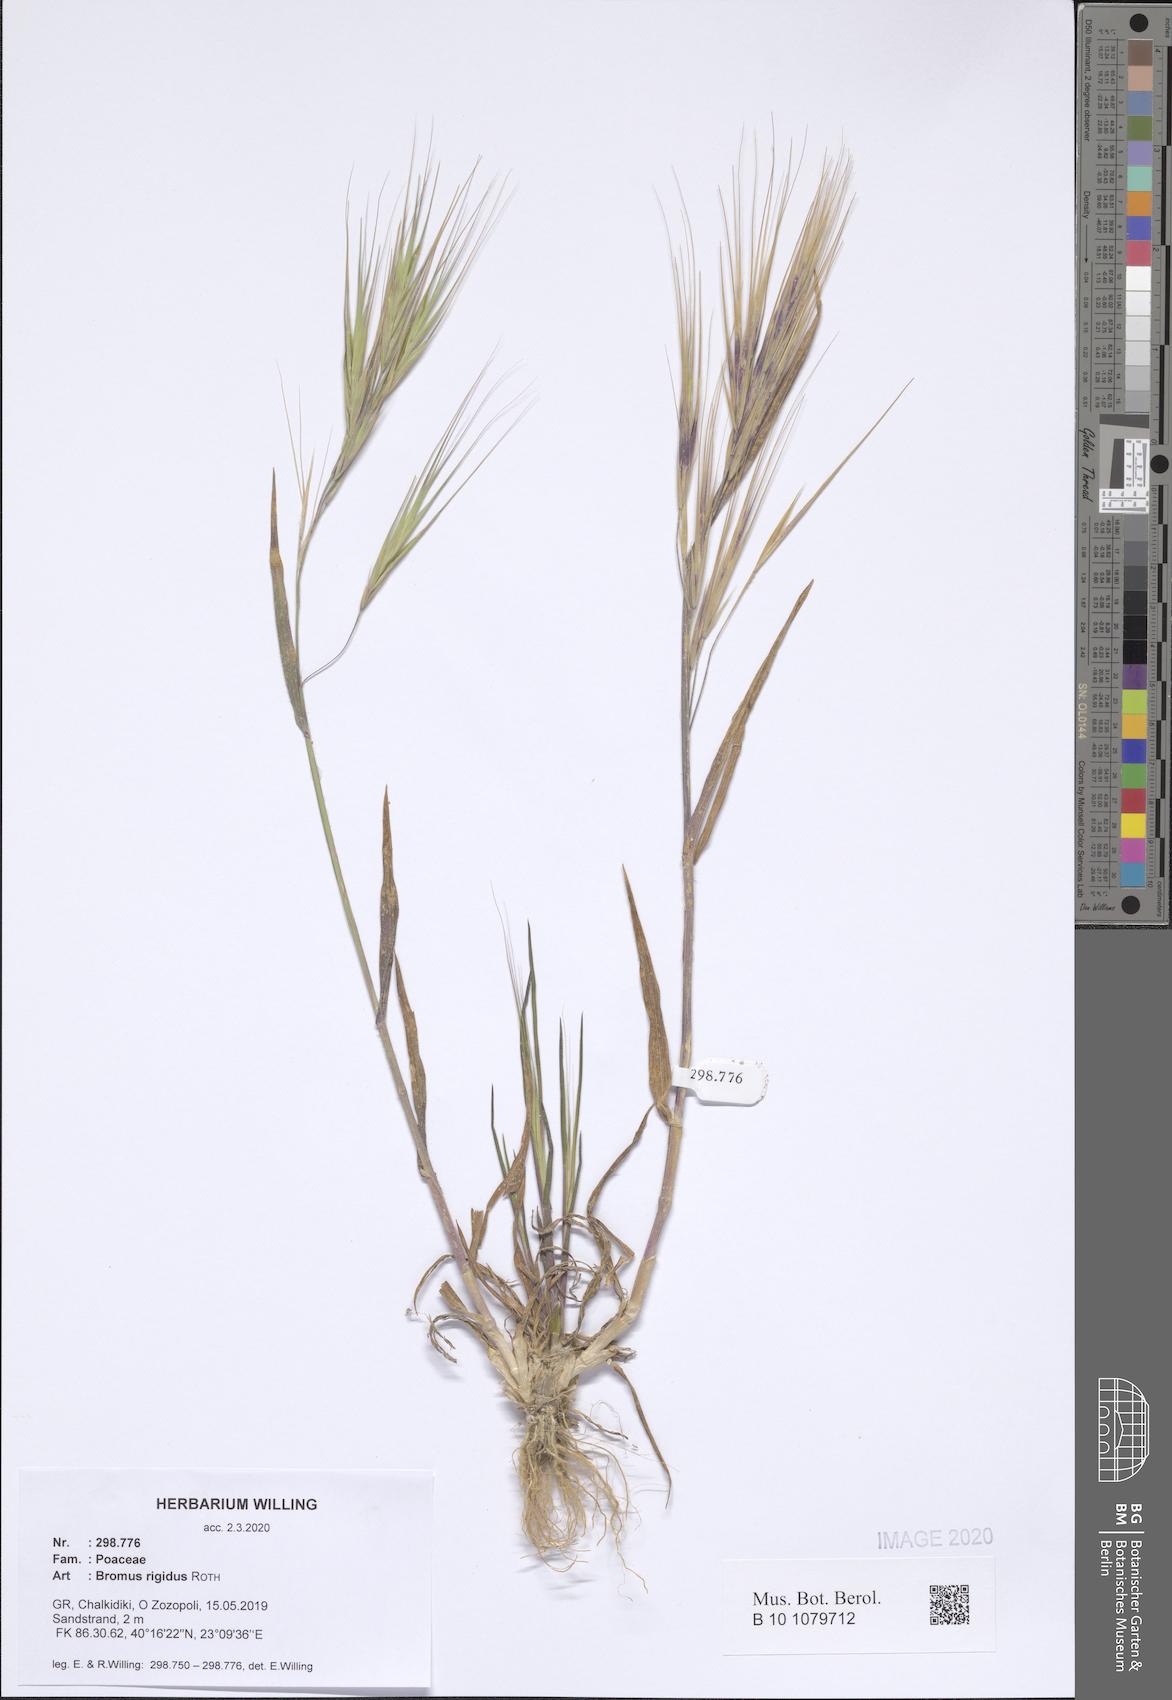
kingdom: Plantae
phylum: Tracheophyta
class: Liliopsida
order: Poales
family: Poaceae
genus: Bromus
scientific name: Bromus rigidus
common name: Ripgut brome
